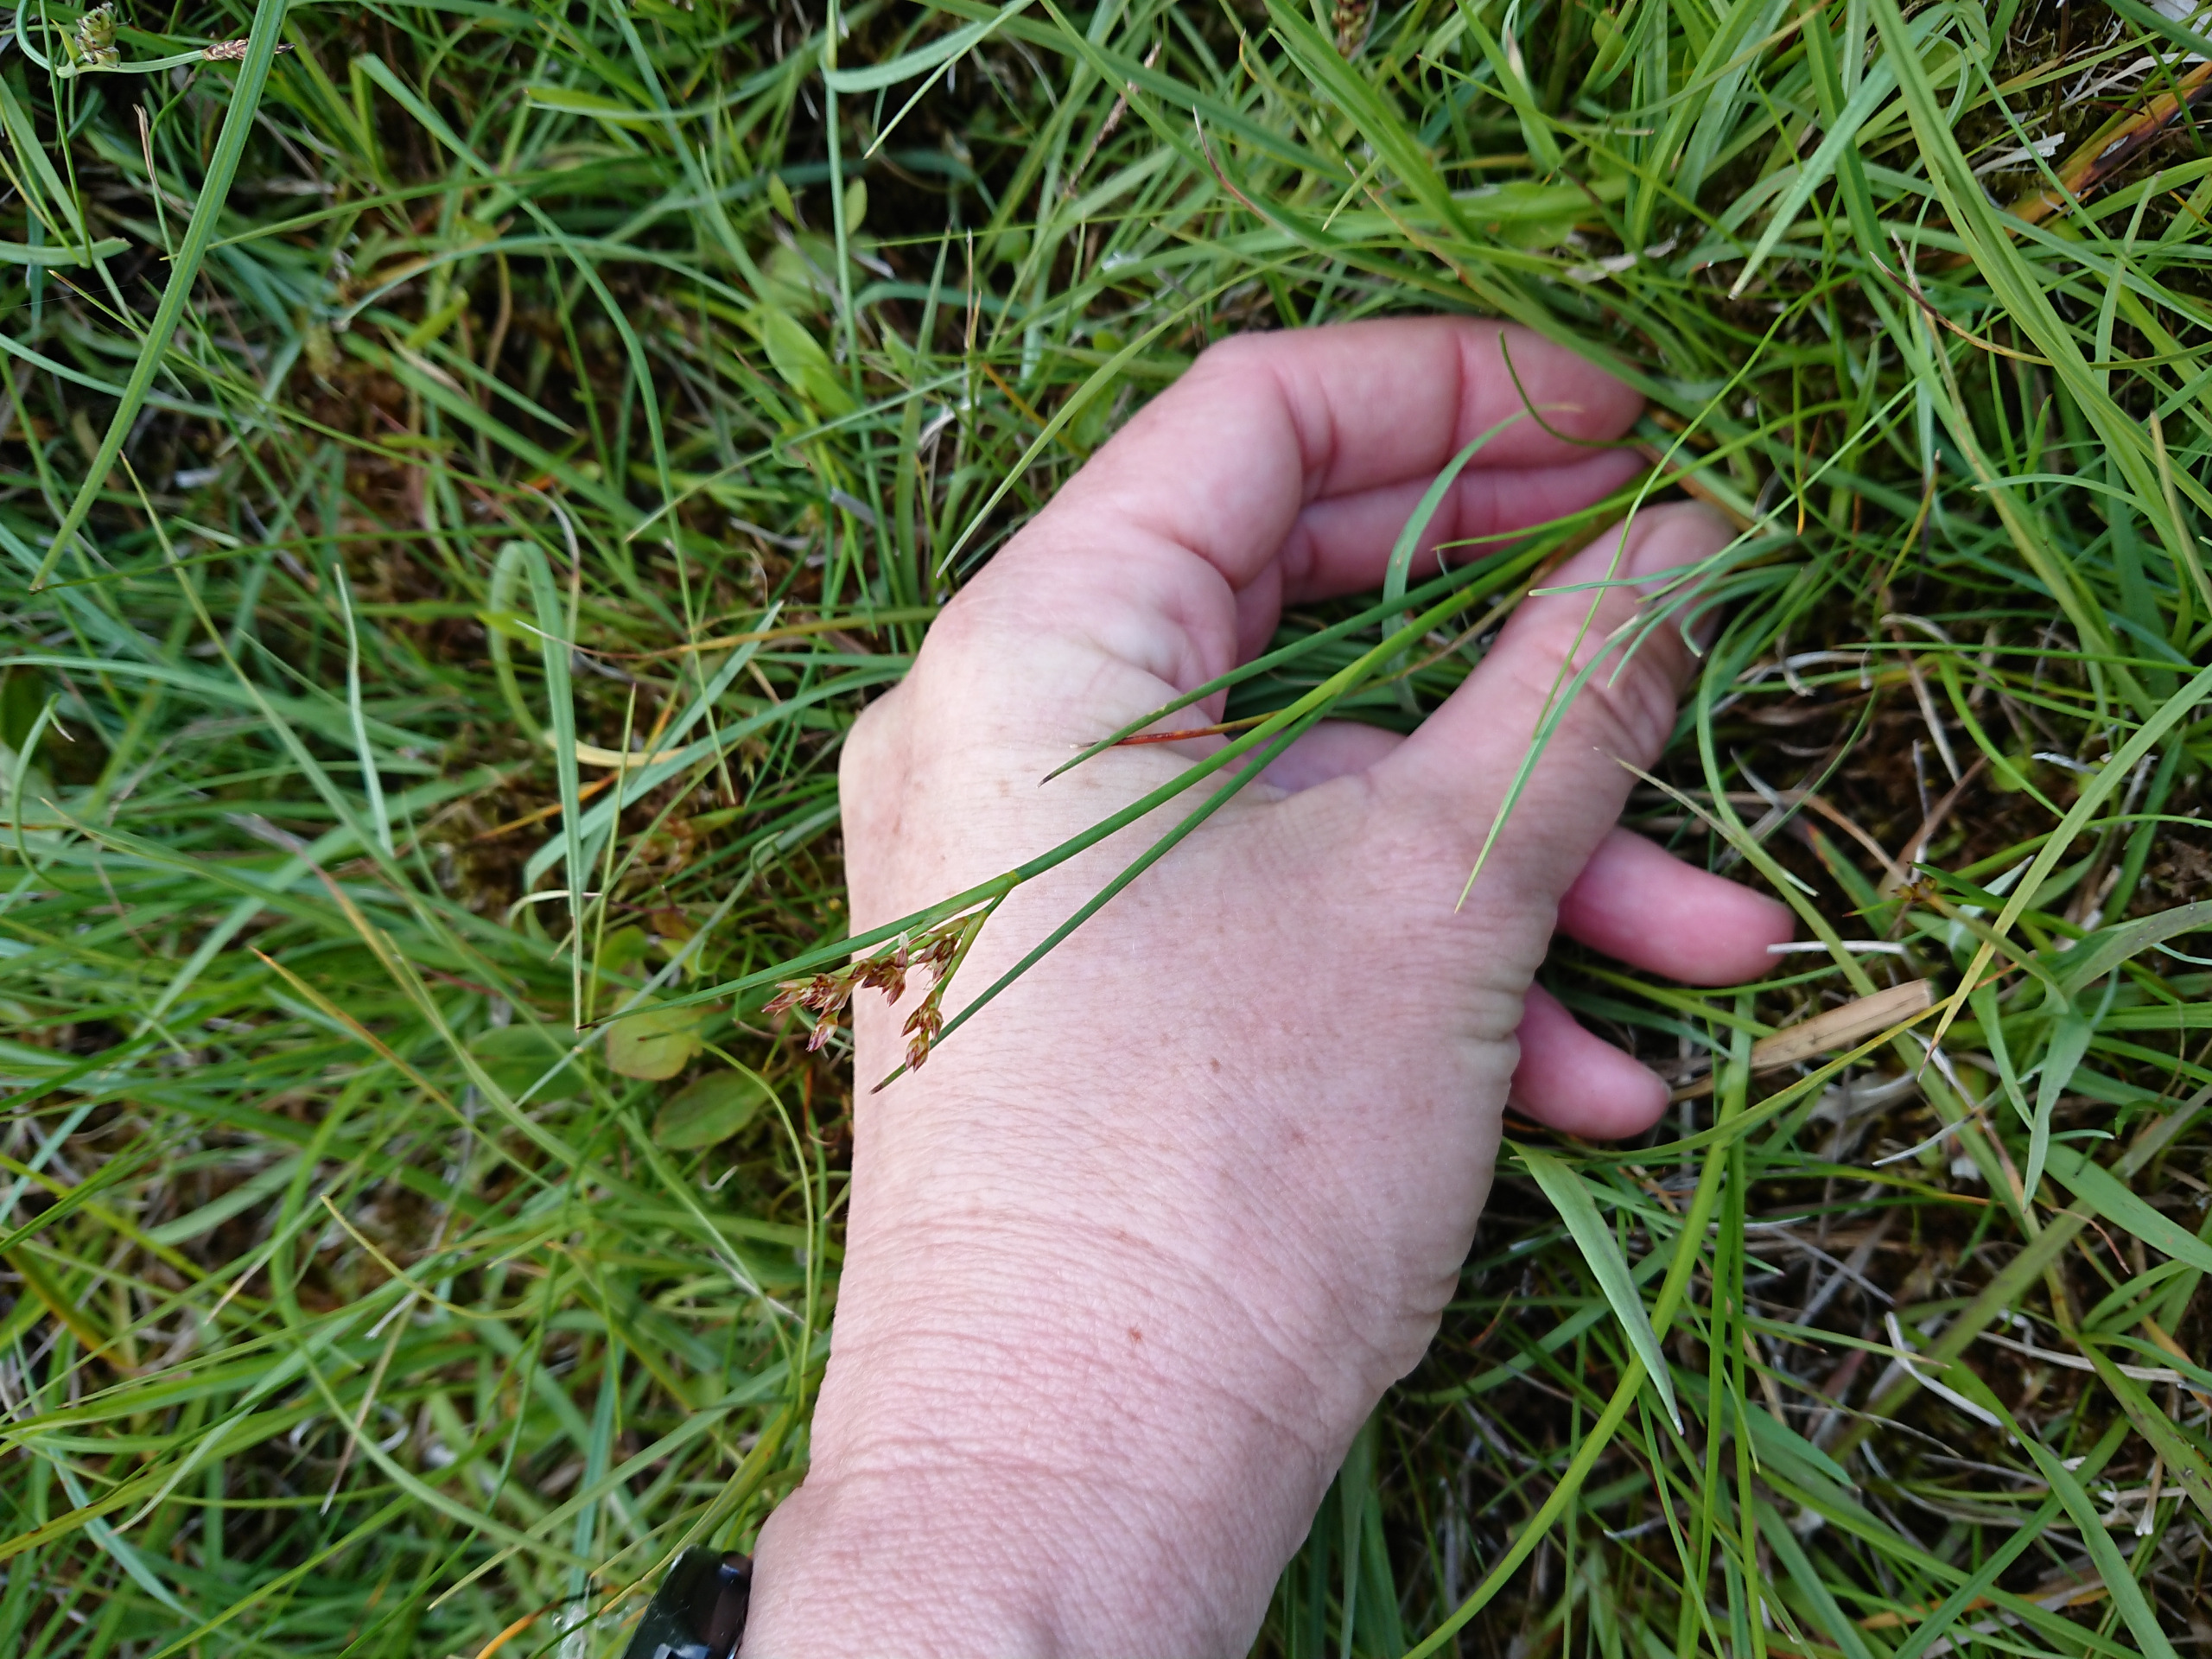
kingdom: Plantae
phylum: Tracheophyta
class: Liliopsida
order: Poales
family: Juncaceae
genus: Juncus
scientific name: Juncus articulatus
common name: Glanskapslet siv
